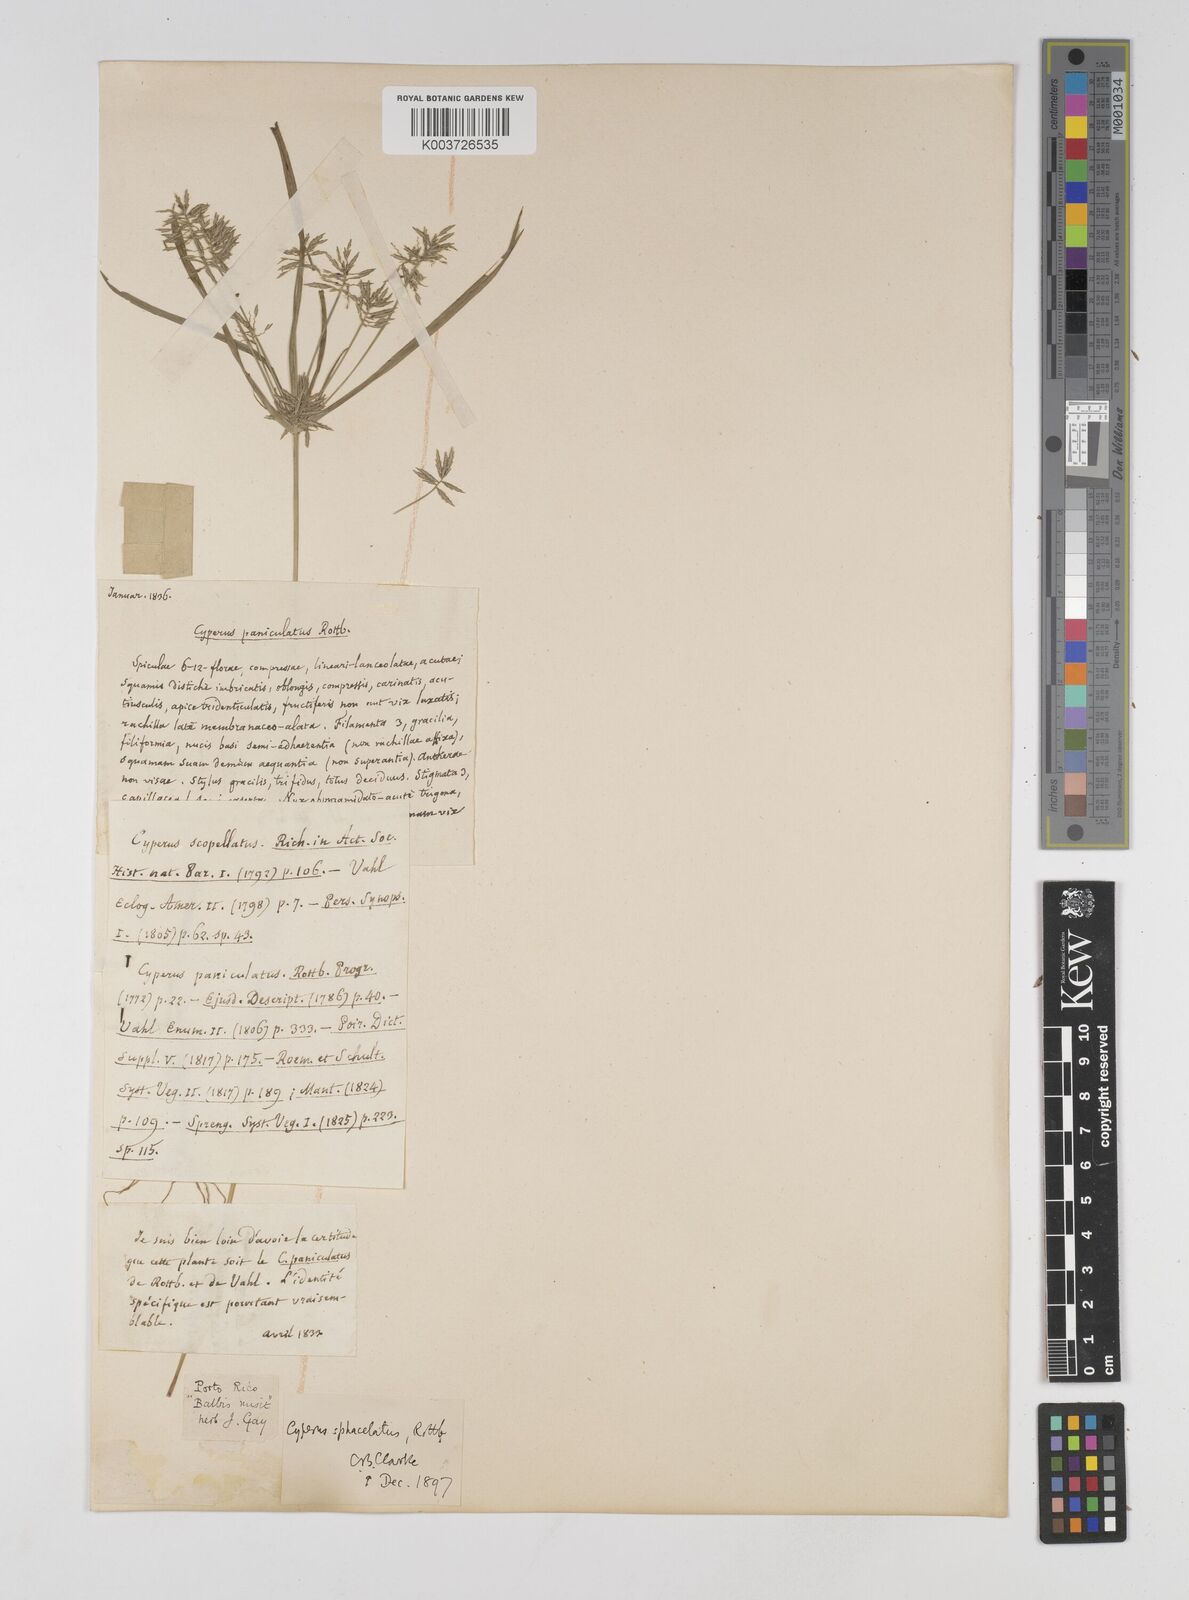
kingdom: Plantae
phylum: Tracheophyta
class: Liliopsida
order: Poales
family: Cyperaceae
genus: Cyperus
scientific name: Cyperus sphacelatus
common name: Roadside flatsedge
